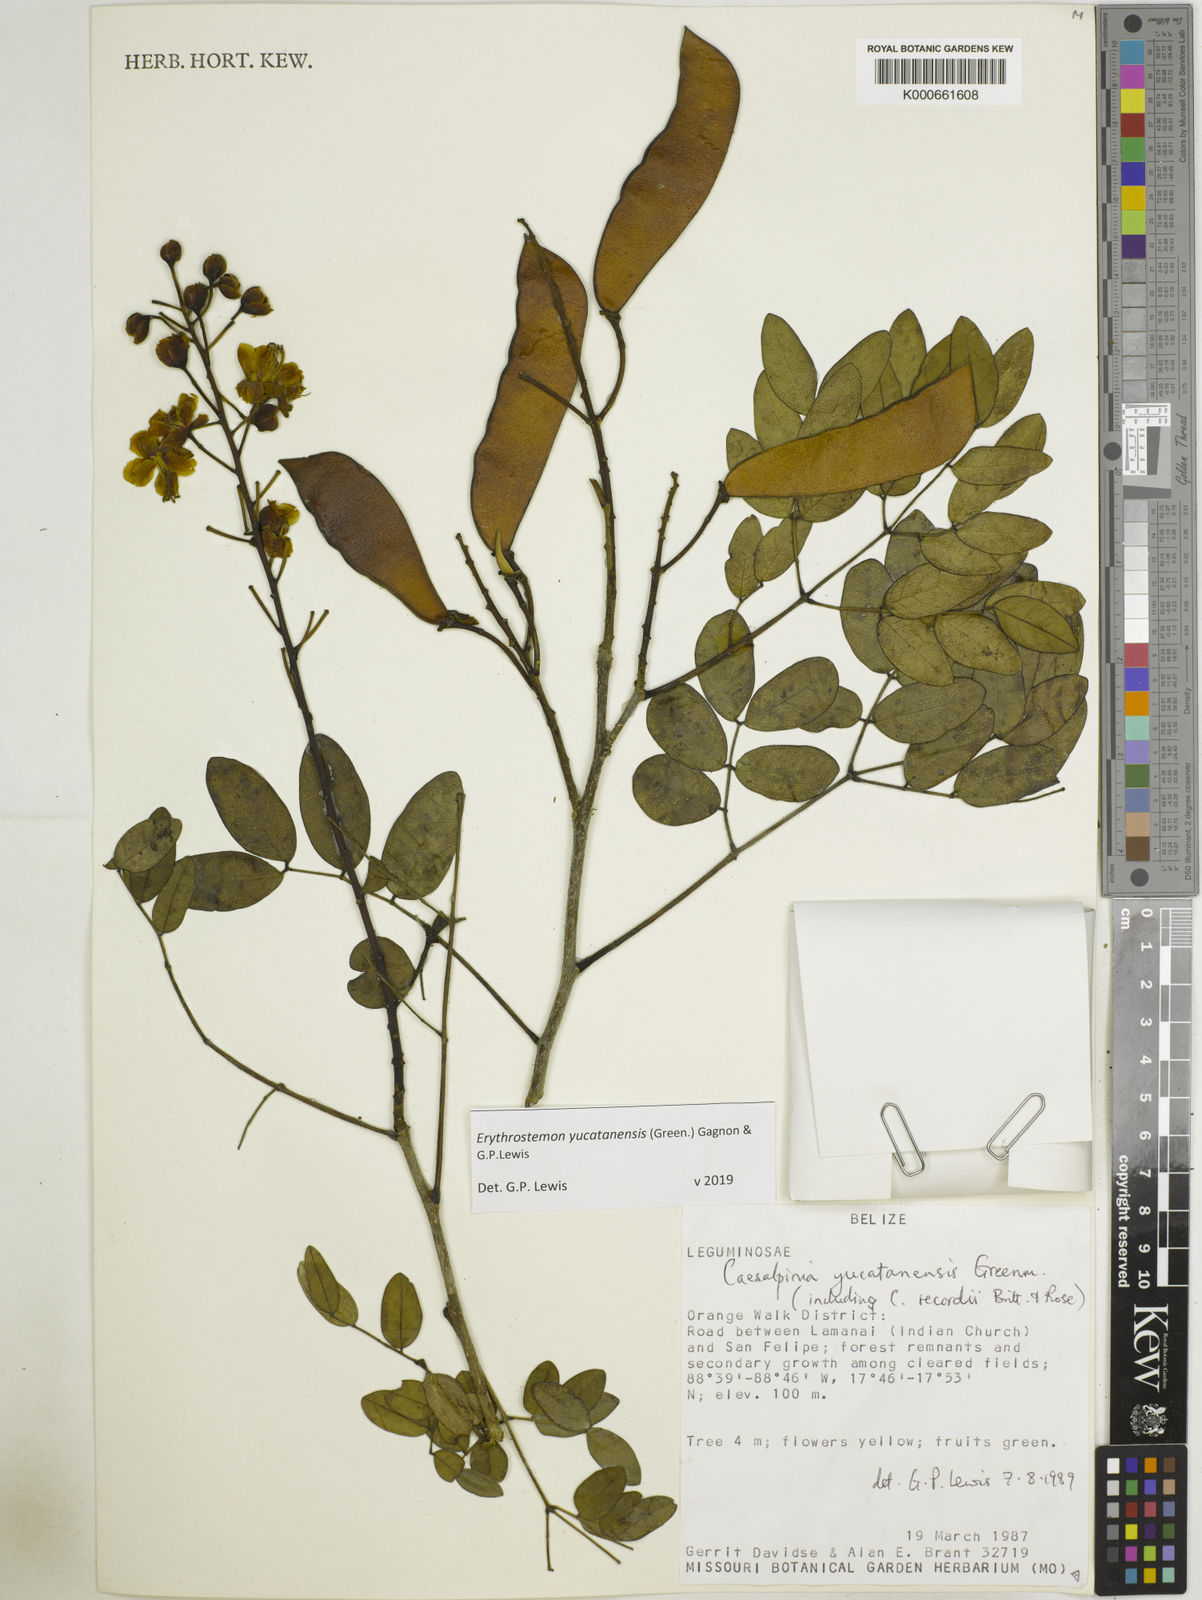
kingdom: Plantae
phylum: Tracheophyta
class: Magnoliopsida
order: Fabales
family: Fabaceae
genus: Caesalpinia
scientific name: Caesalpinia
